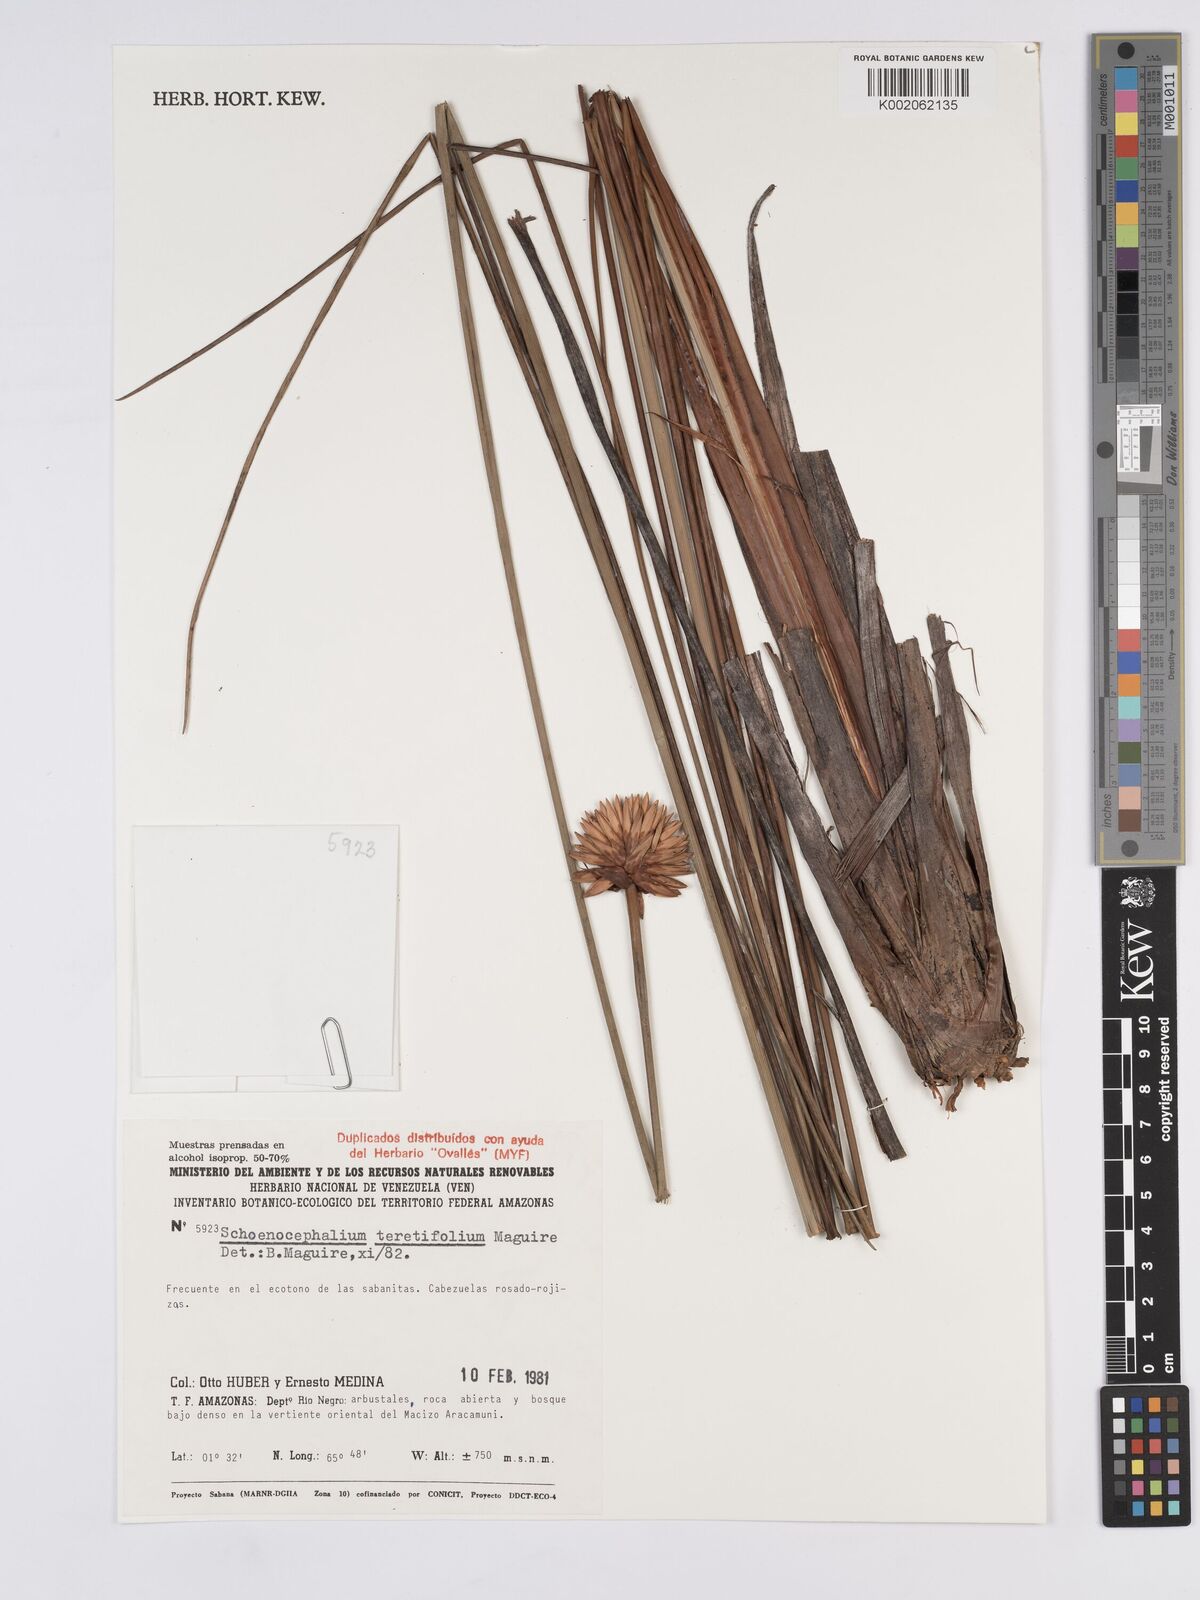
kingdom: Plantae
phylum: Tracheophyta
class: Liliopsida
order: Poales
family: Rapateaceae
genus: Schoenocephalium
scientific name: Schoenocephalium teretifolium
